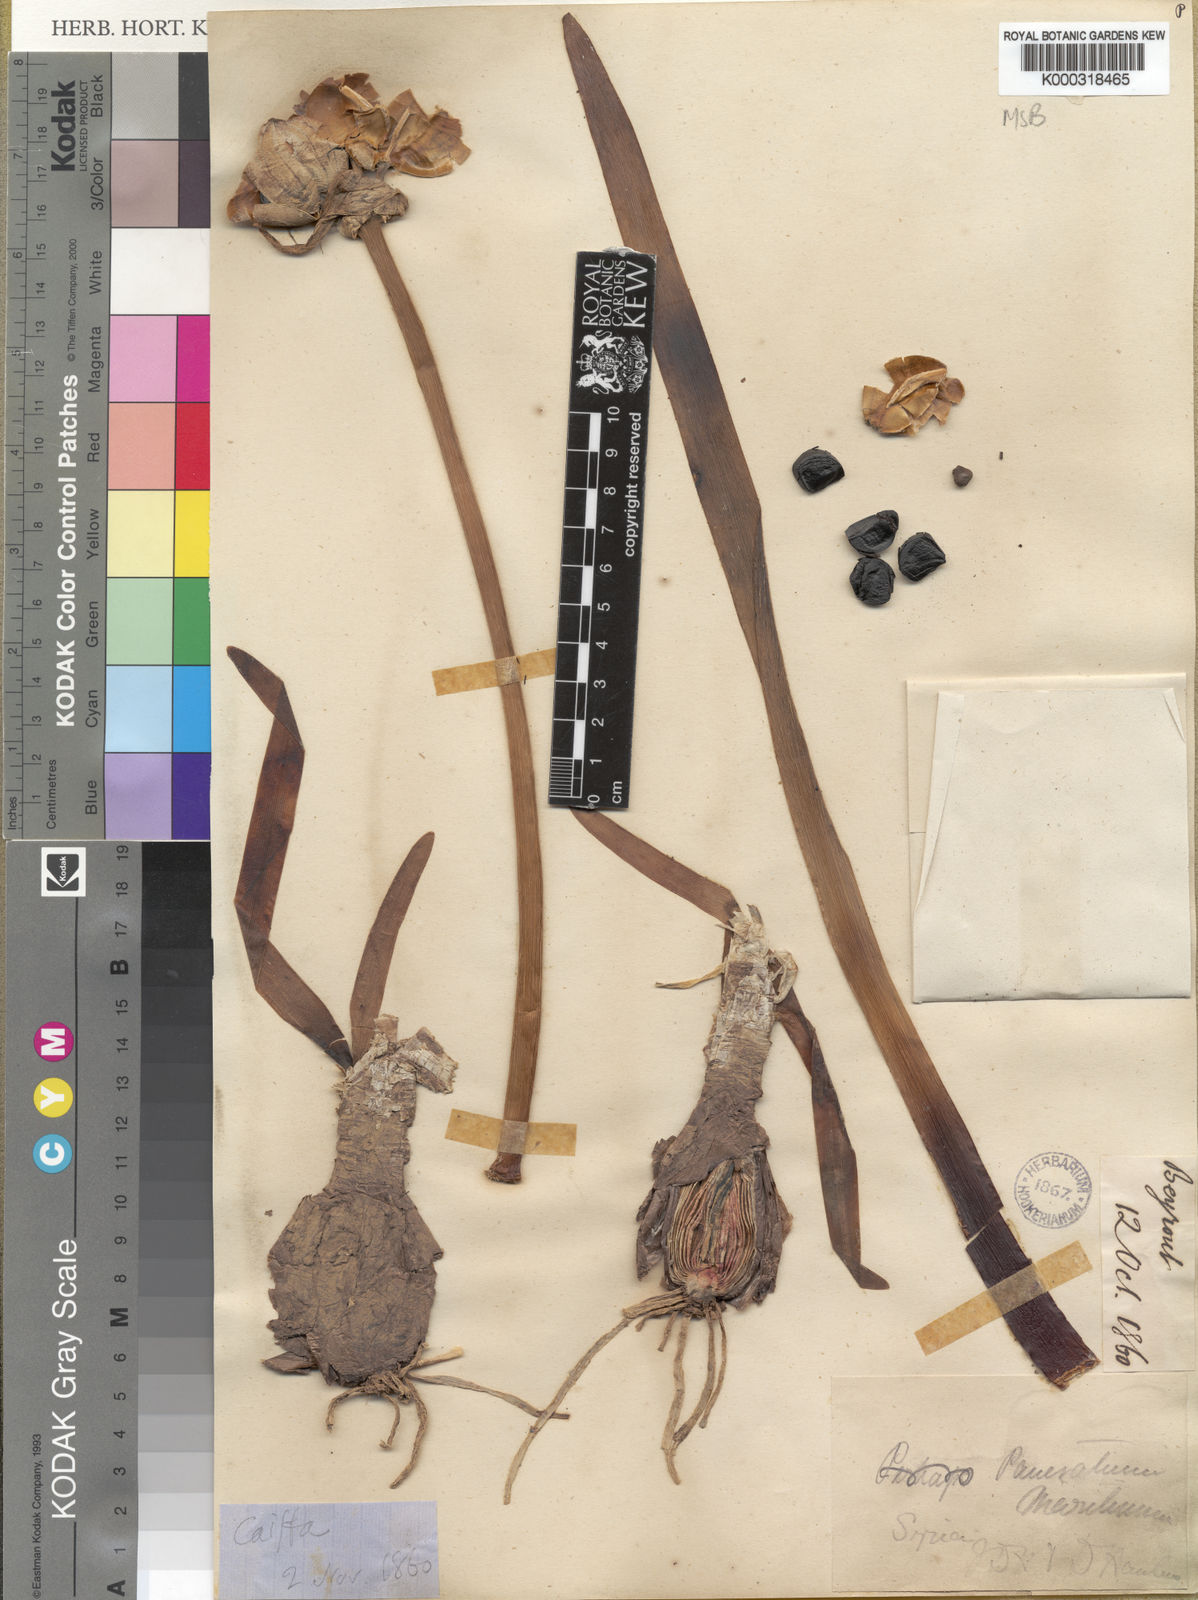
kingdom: Plantae
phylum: Tracheophyta
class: Liliopsida
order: Asparagales
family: Amaryllidaceae
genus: Pancratium
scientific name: Pancratium maritimum
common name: Sea-daffodil
